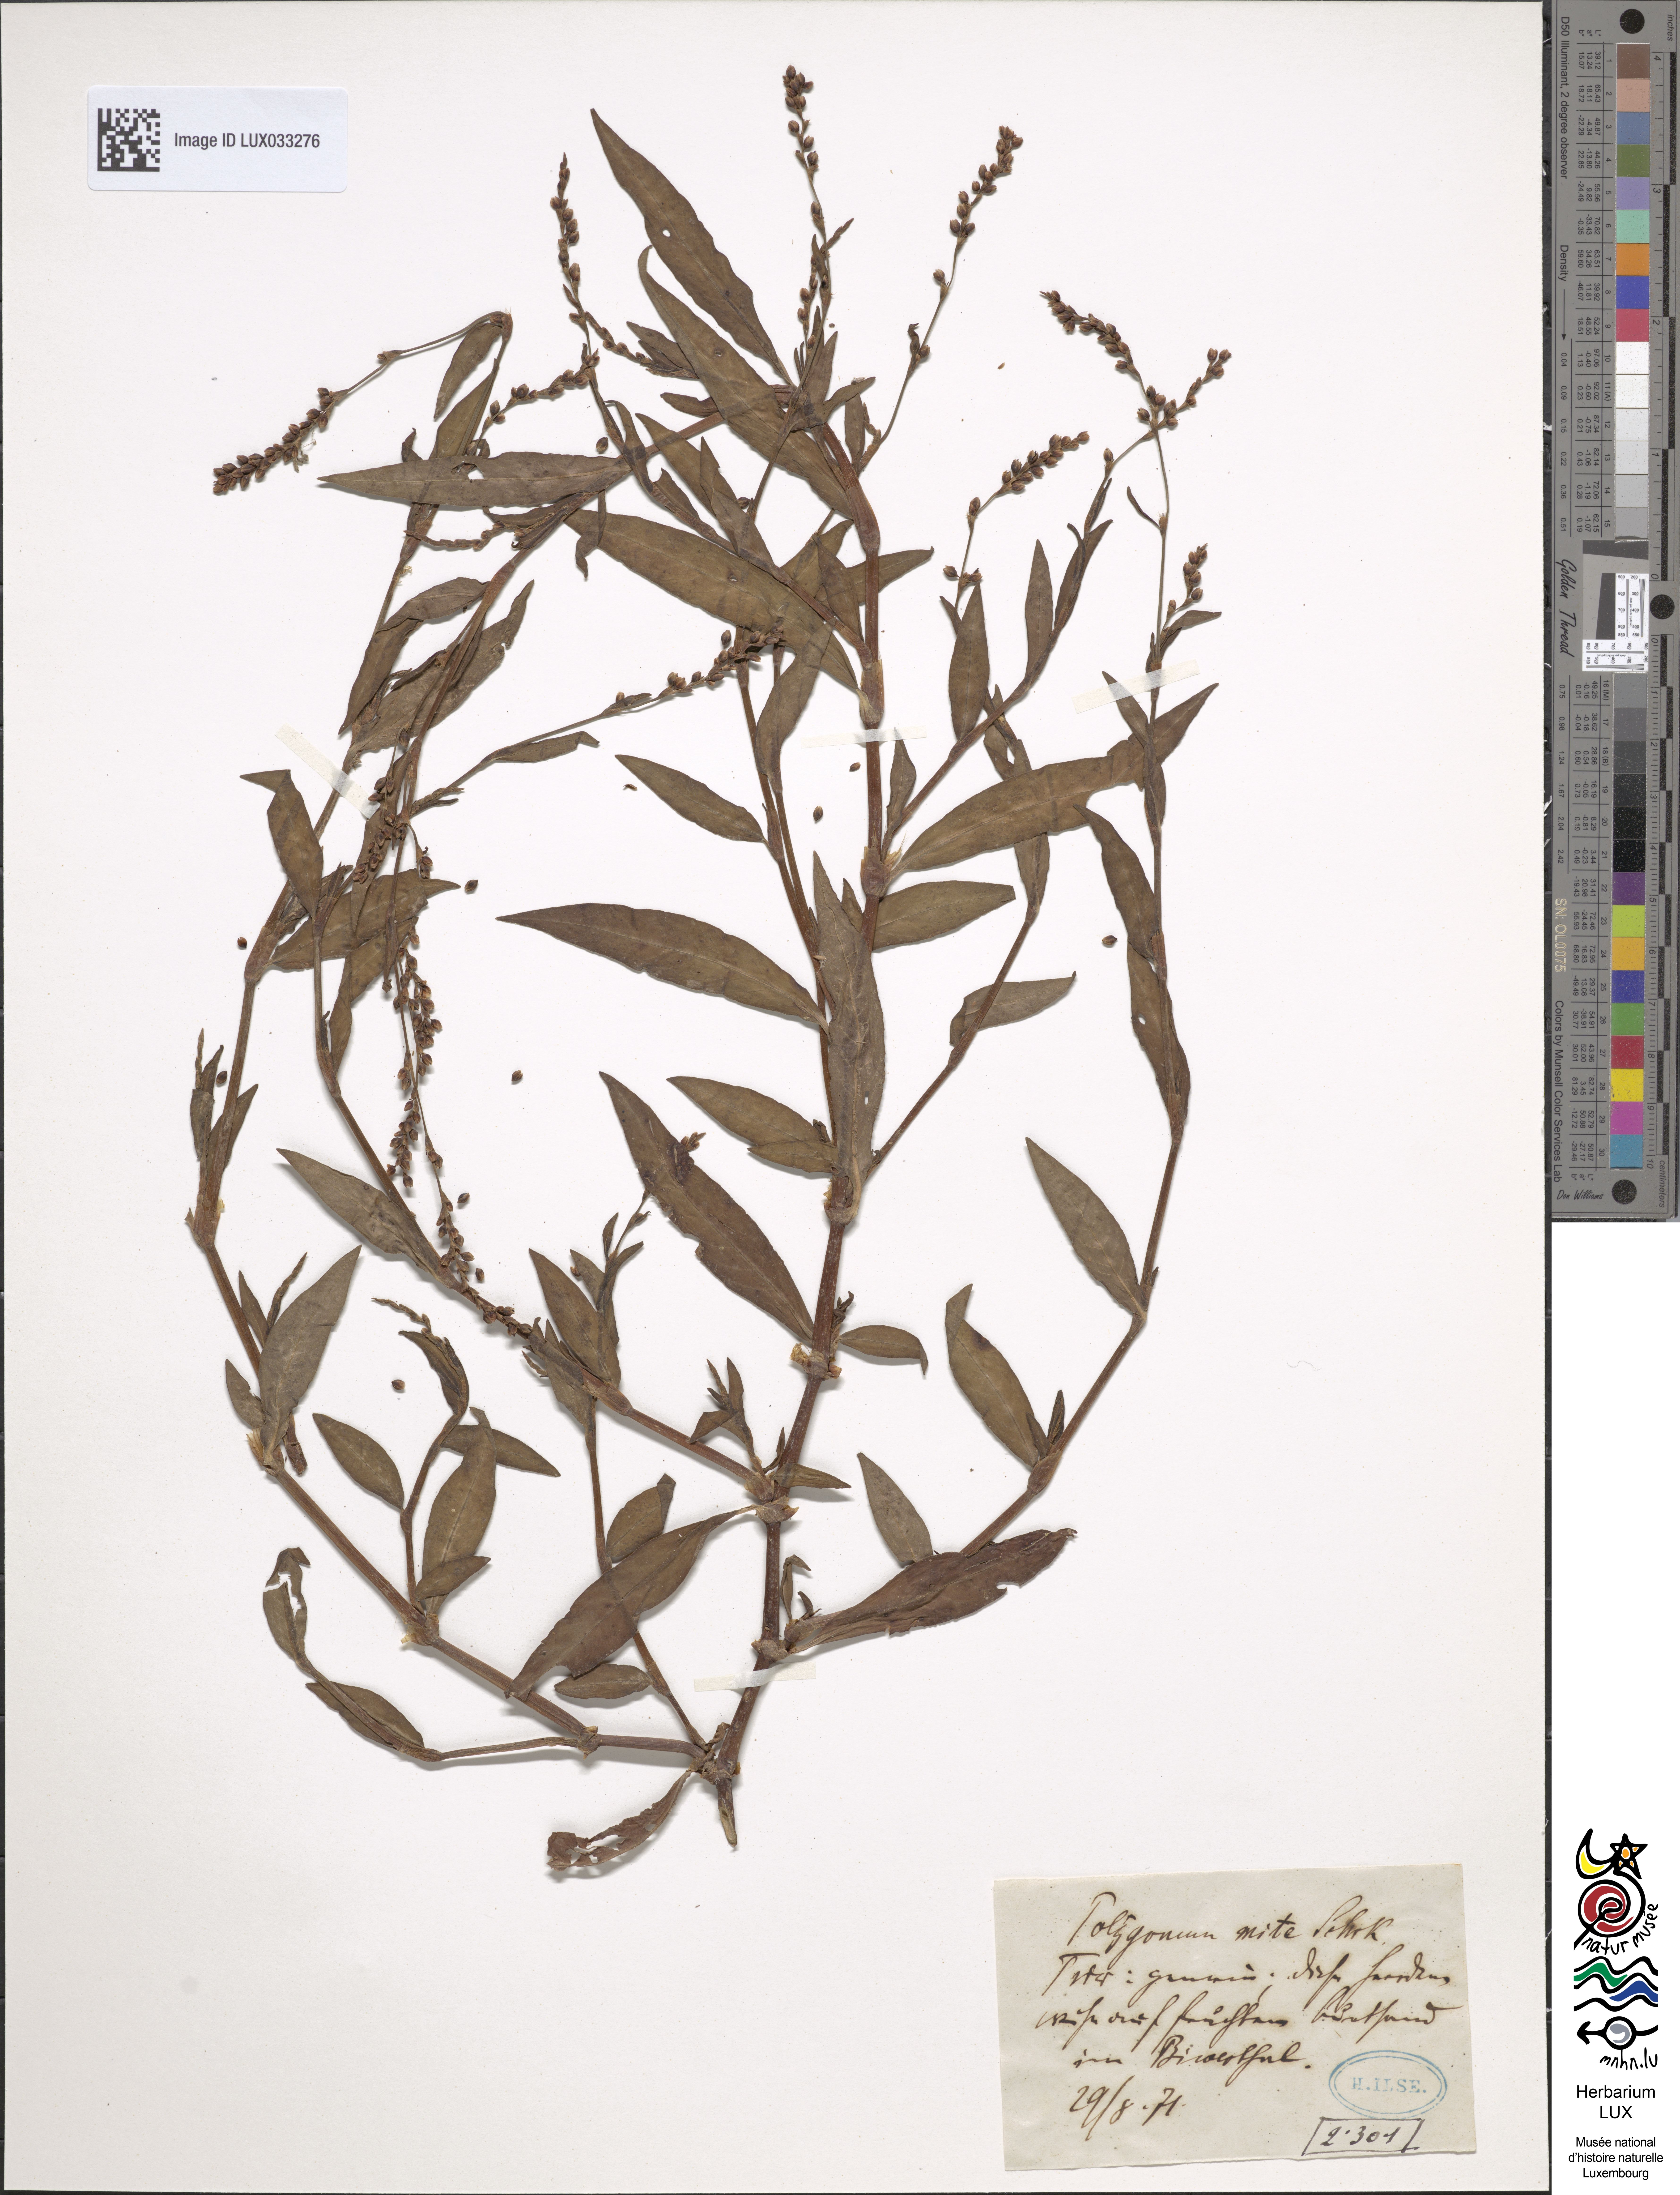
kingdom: Plantae
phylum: Tracheophyta
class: Magnoliopsida
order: Caryophyllales
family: Polygonaceae
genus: Persicaria
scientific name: Persicaria mitis
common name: Tasteless water-pepper
